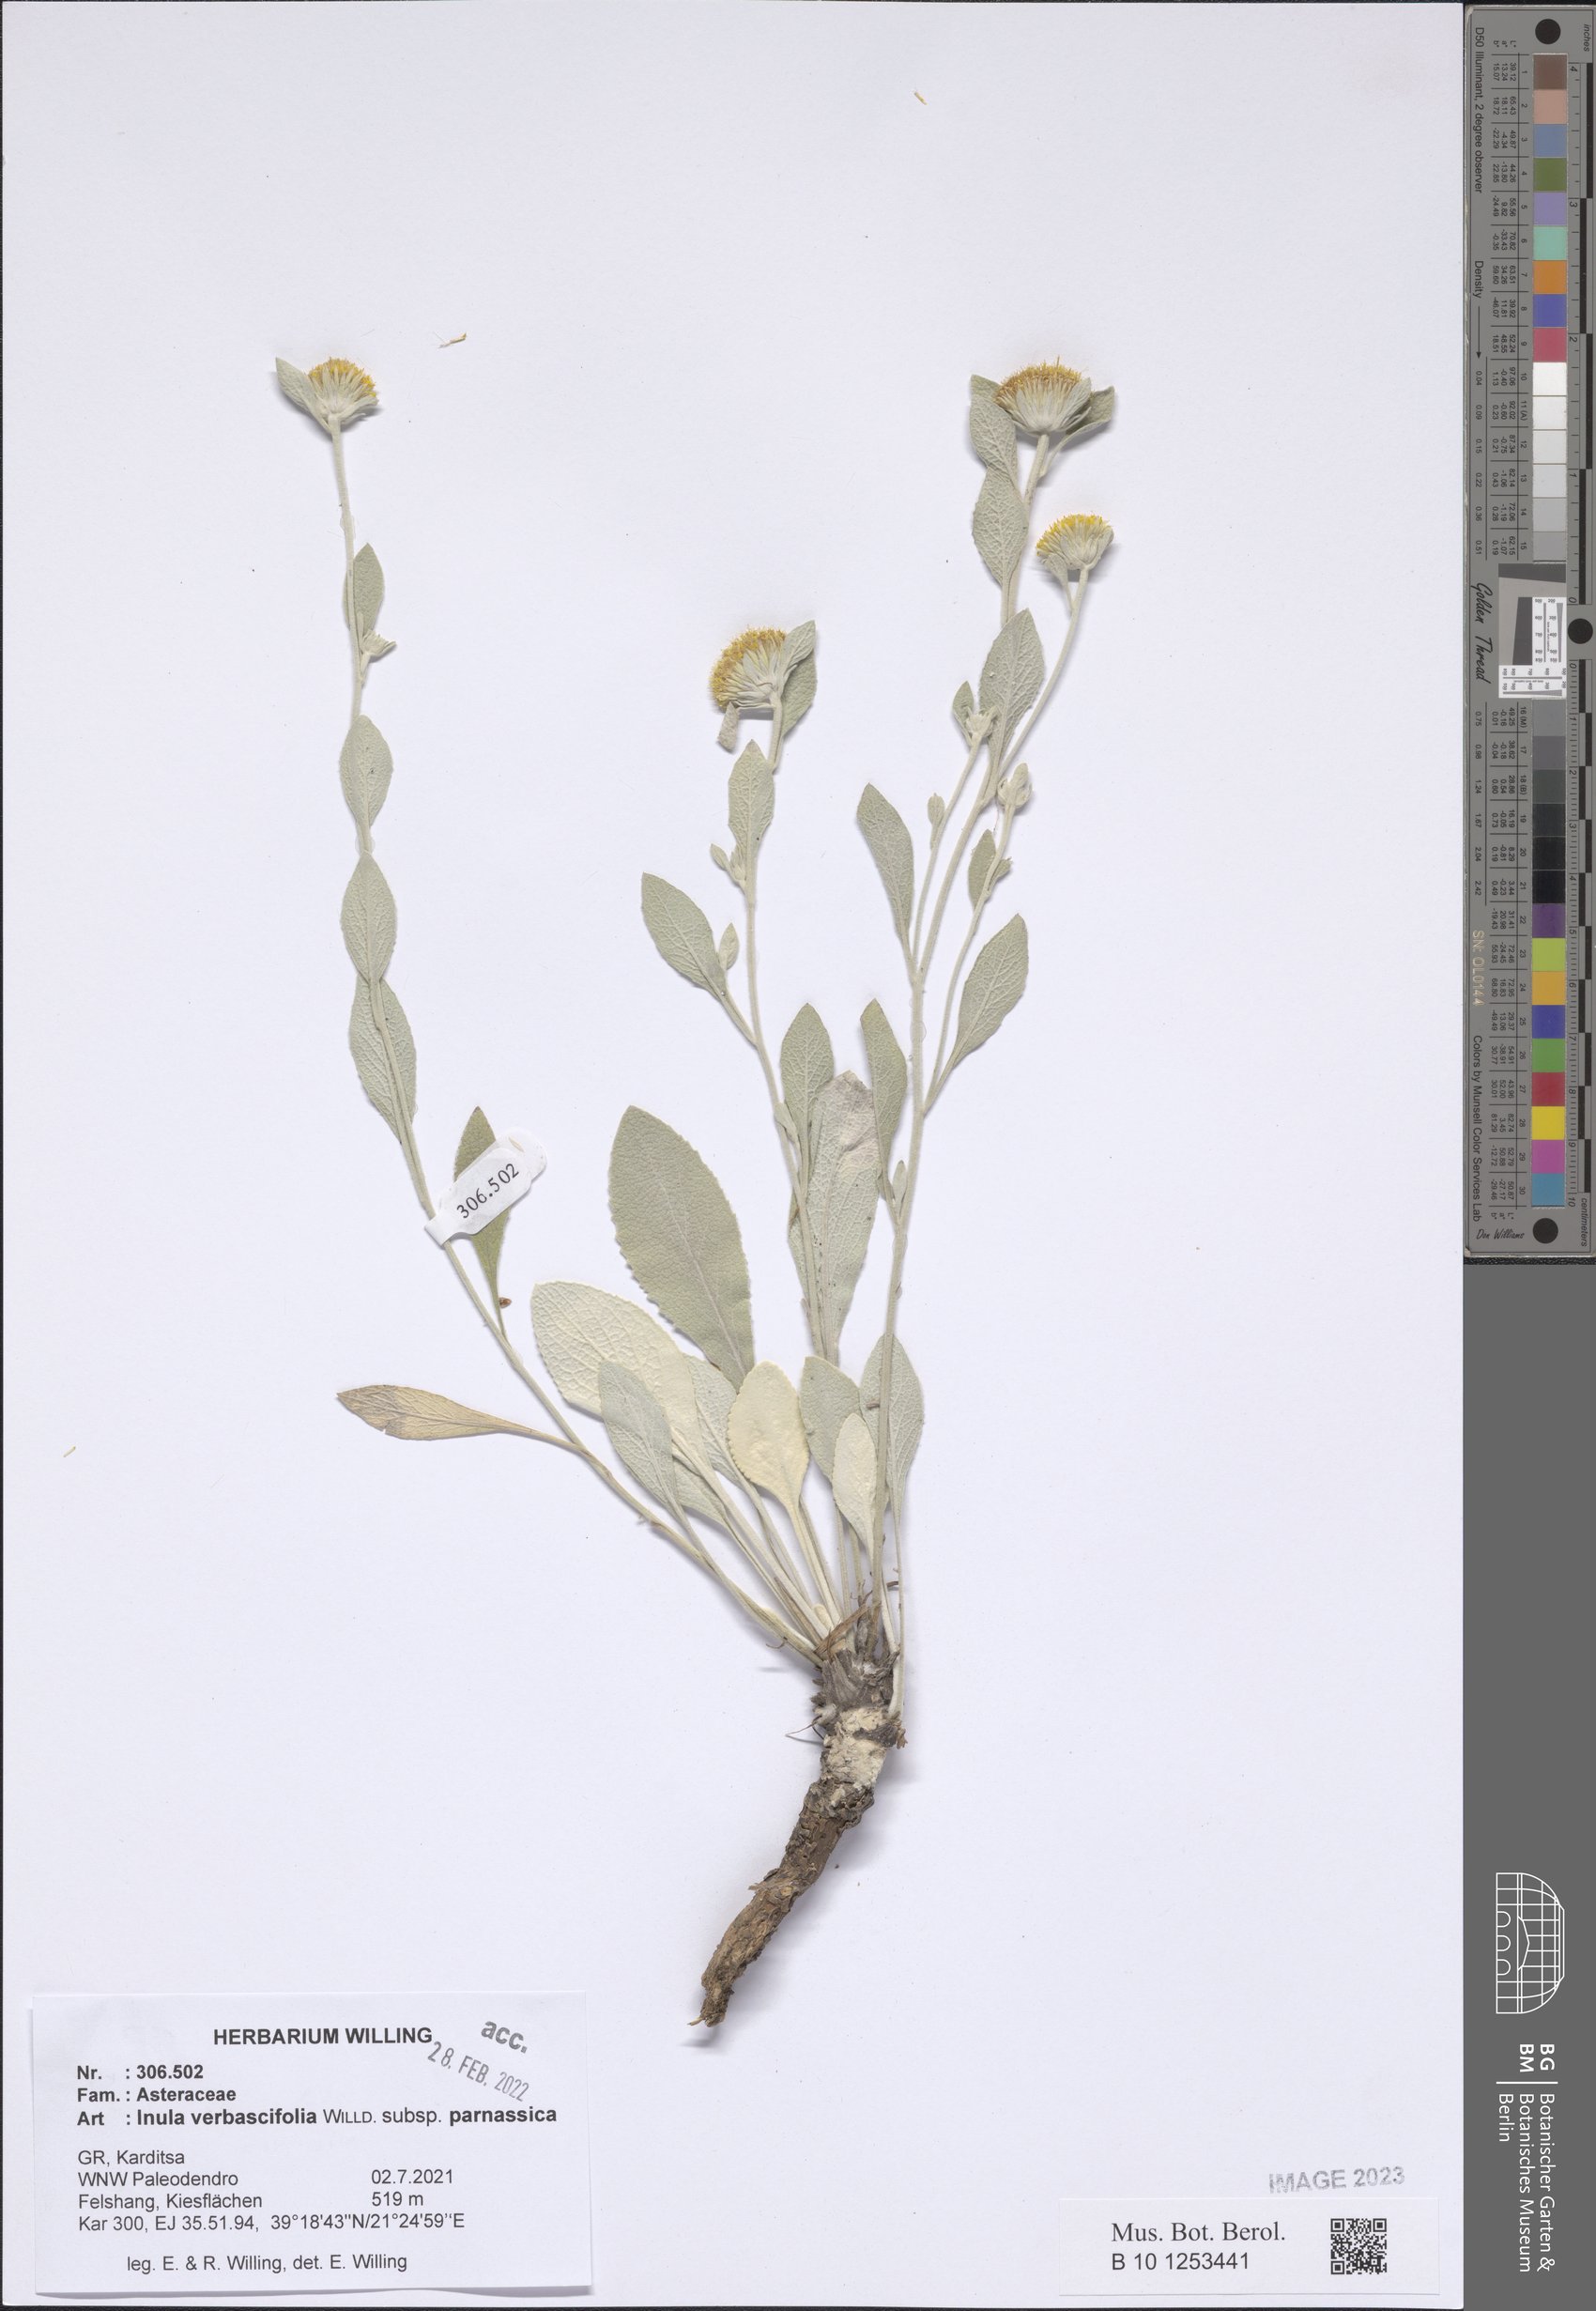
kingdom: Plantae
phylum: Tracheophyta
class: Magnoliopsida
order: Asterales
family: Asteraceae
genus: Pentanema
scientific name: Pentanema verbascifolium
